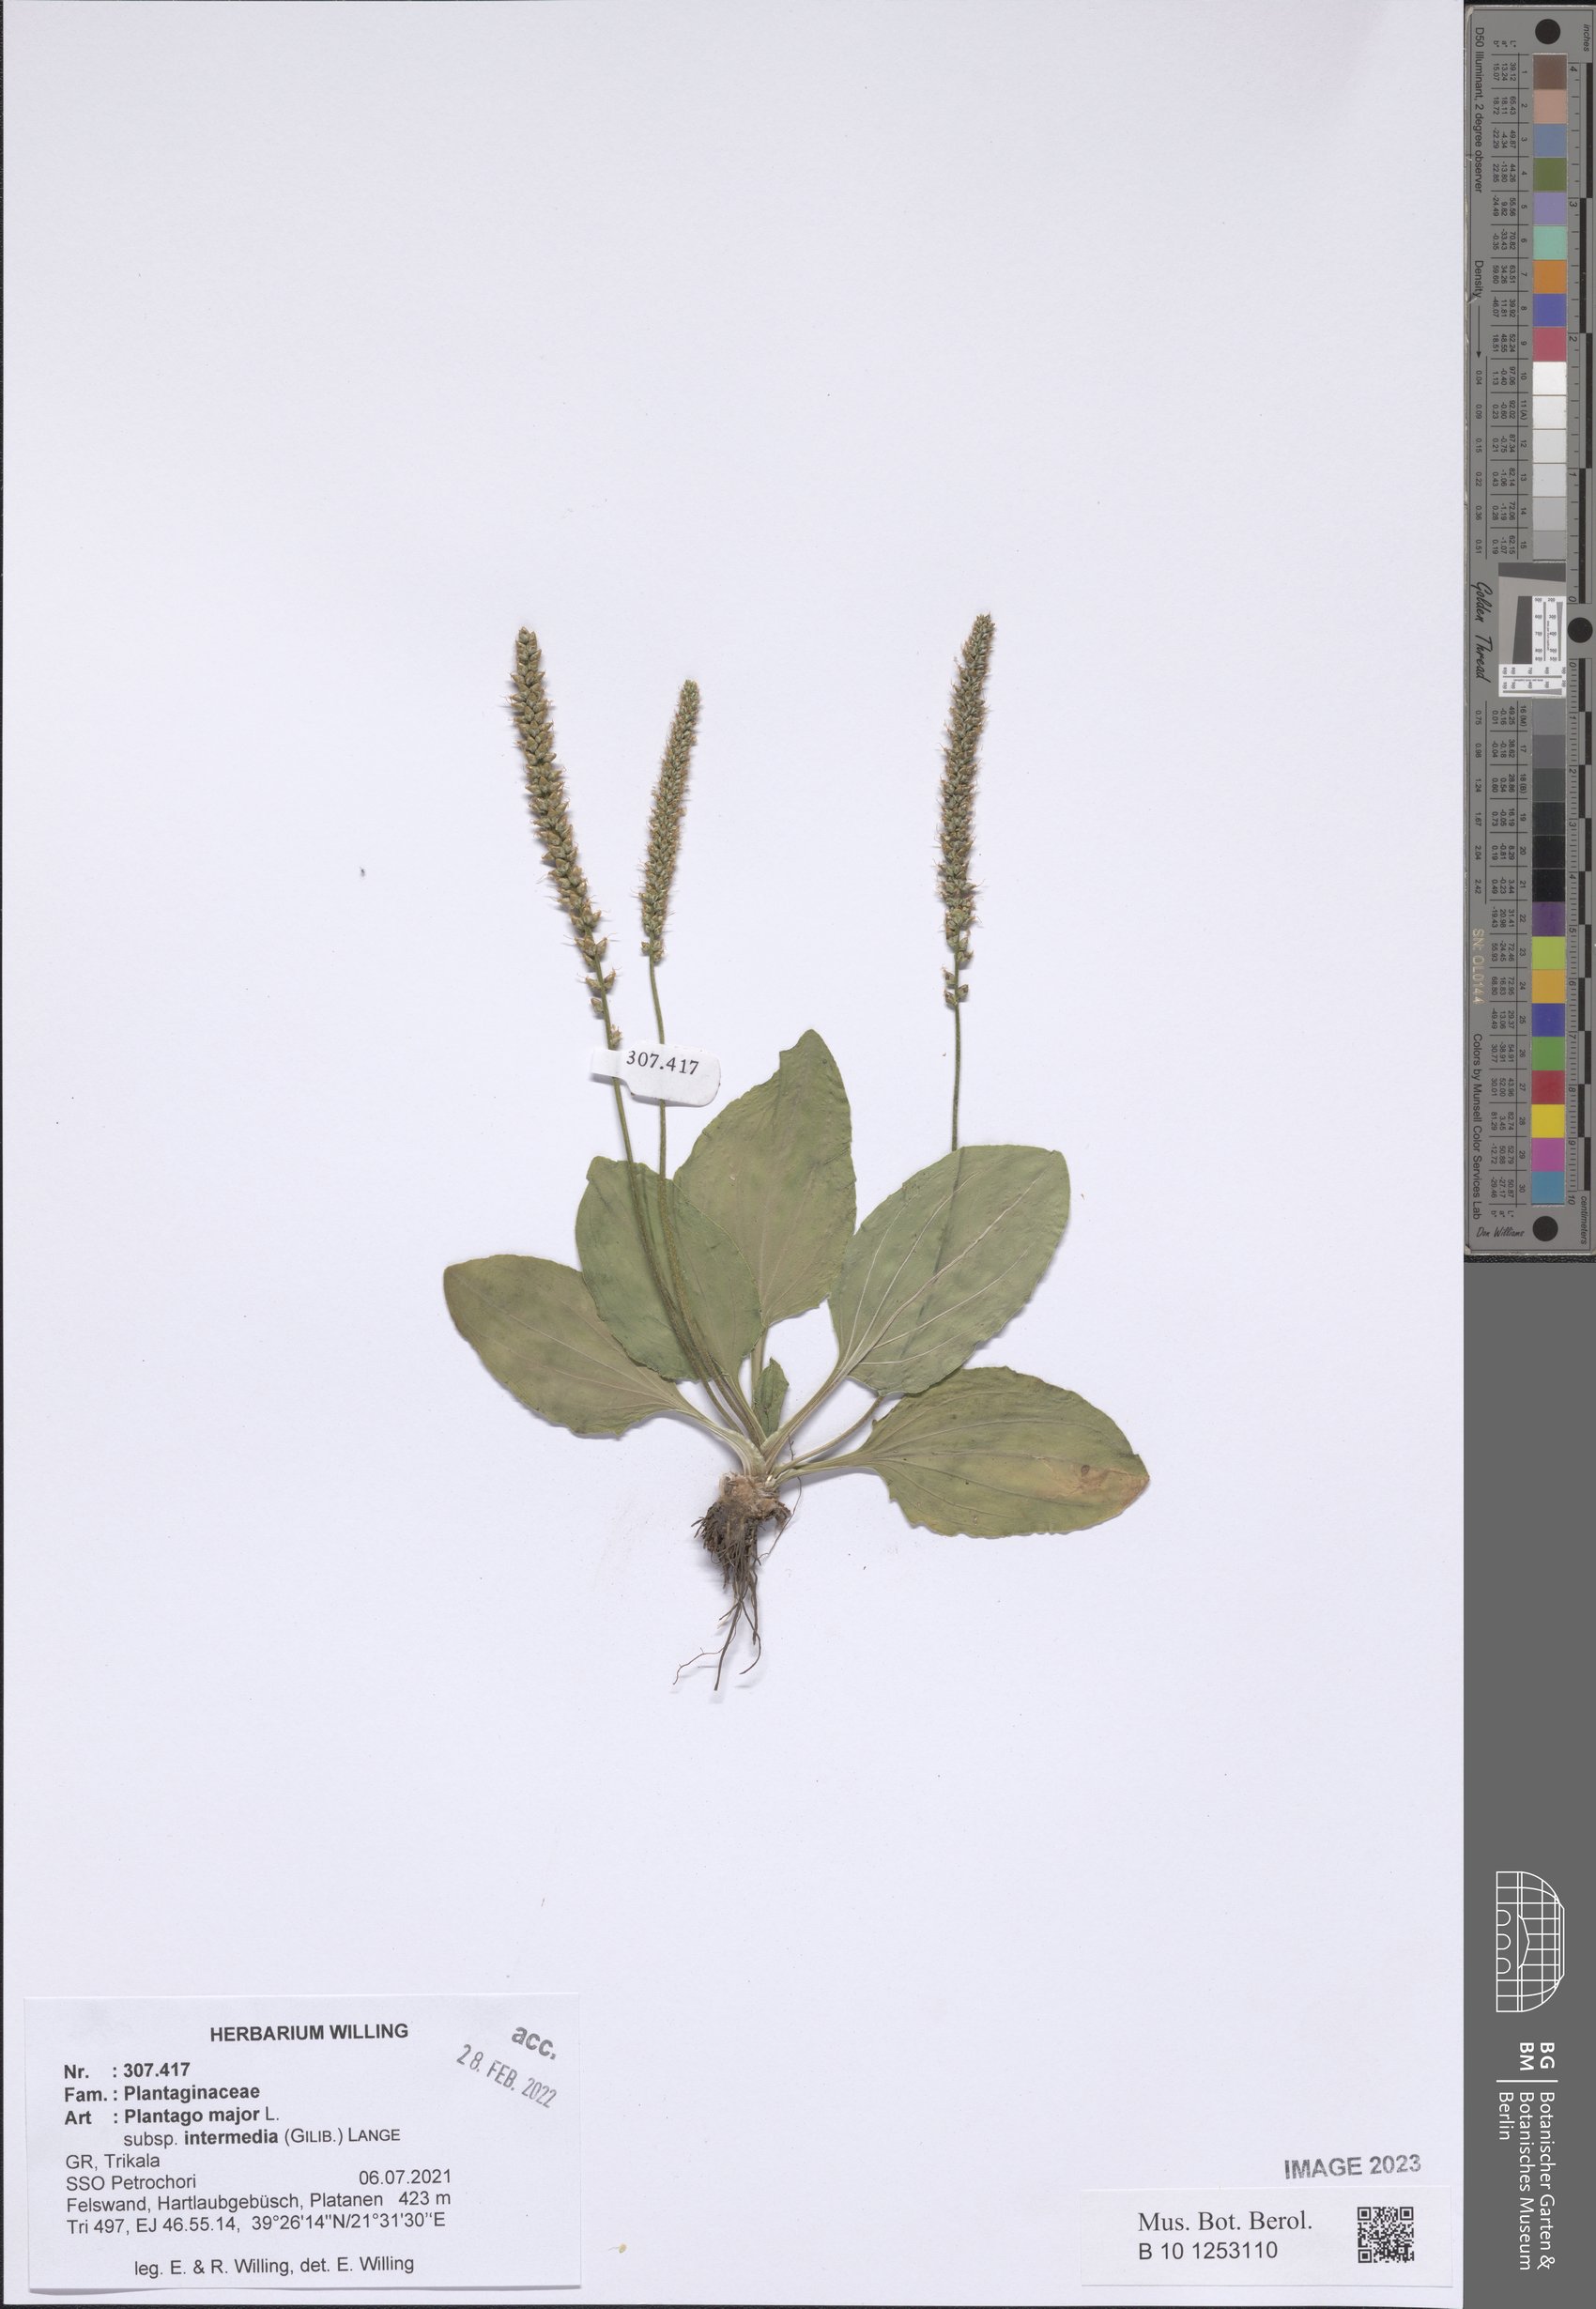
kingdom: Plantae
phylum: Tracheophyta
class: Magnoliopsida
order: Lamiales
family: Plantaginaceae
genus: Plantago
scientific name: Plantago uliginosa
